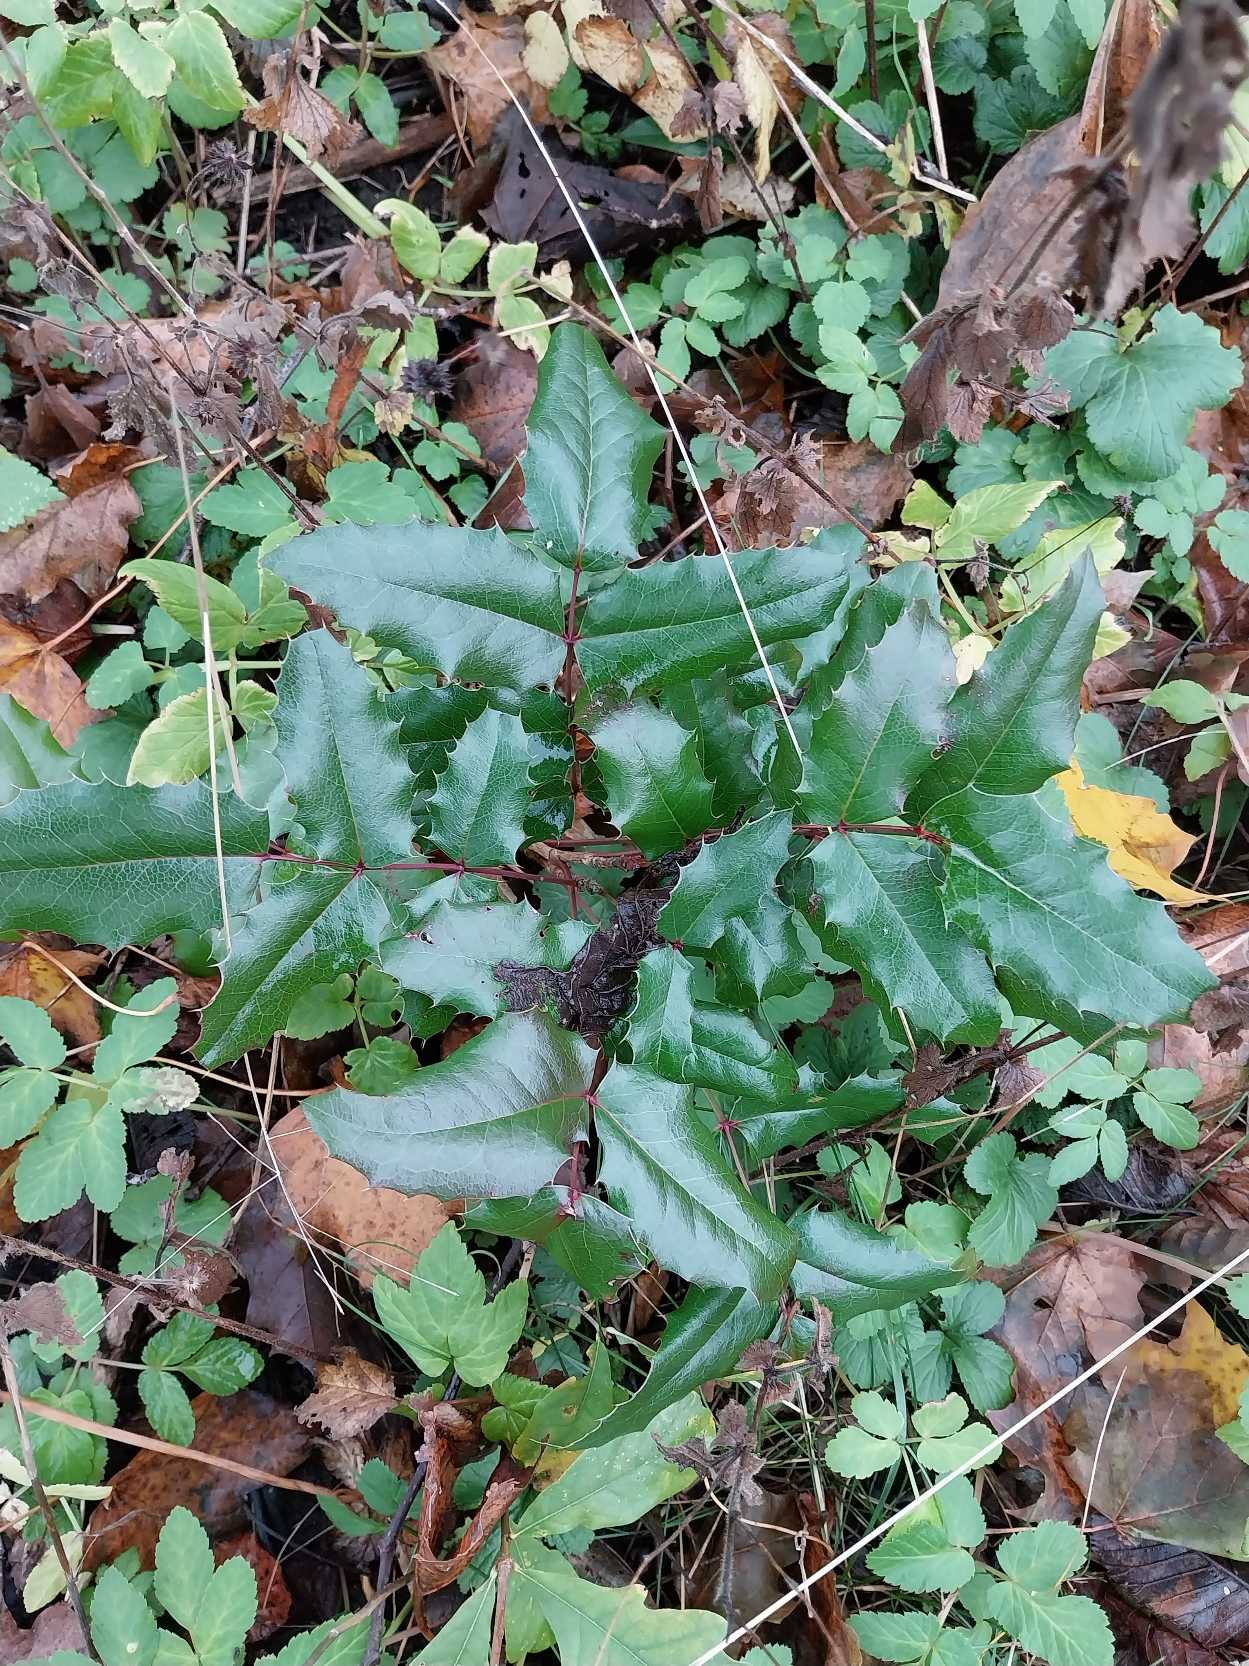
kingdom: Plantae
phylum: Tracheophyta
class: Magnoliopsida
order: Ranunculales
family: Berberidaceae
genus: Mahonia
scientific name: Mahonia aquifolium
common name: Almindelig mahonie
